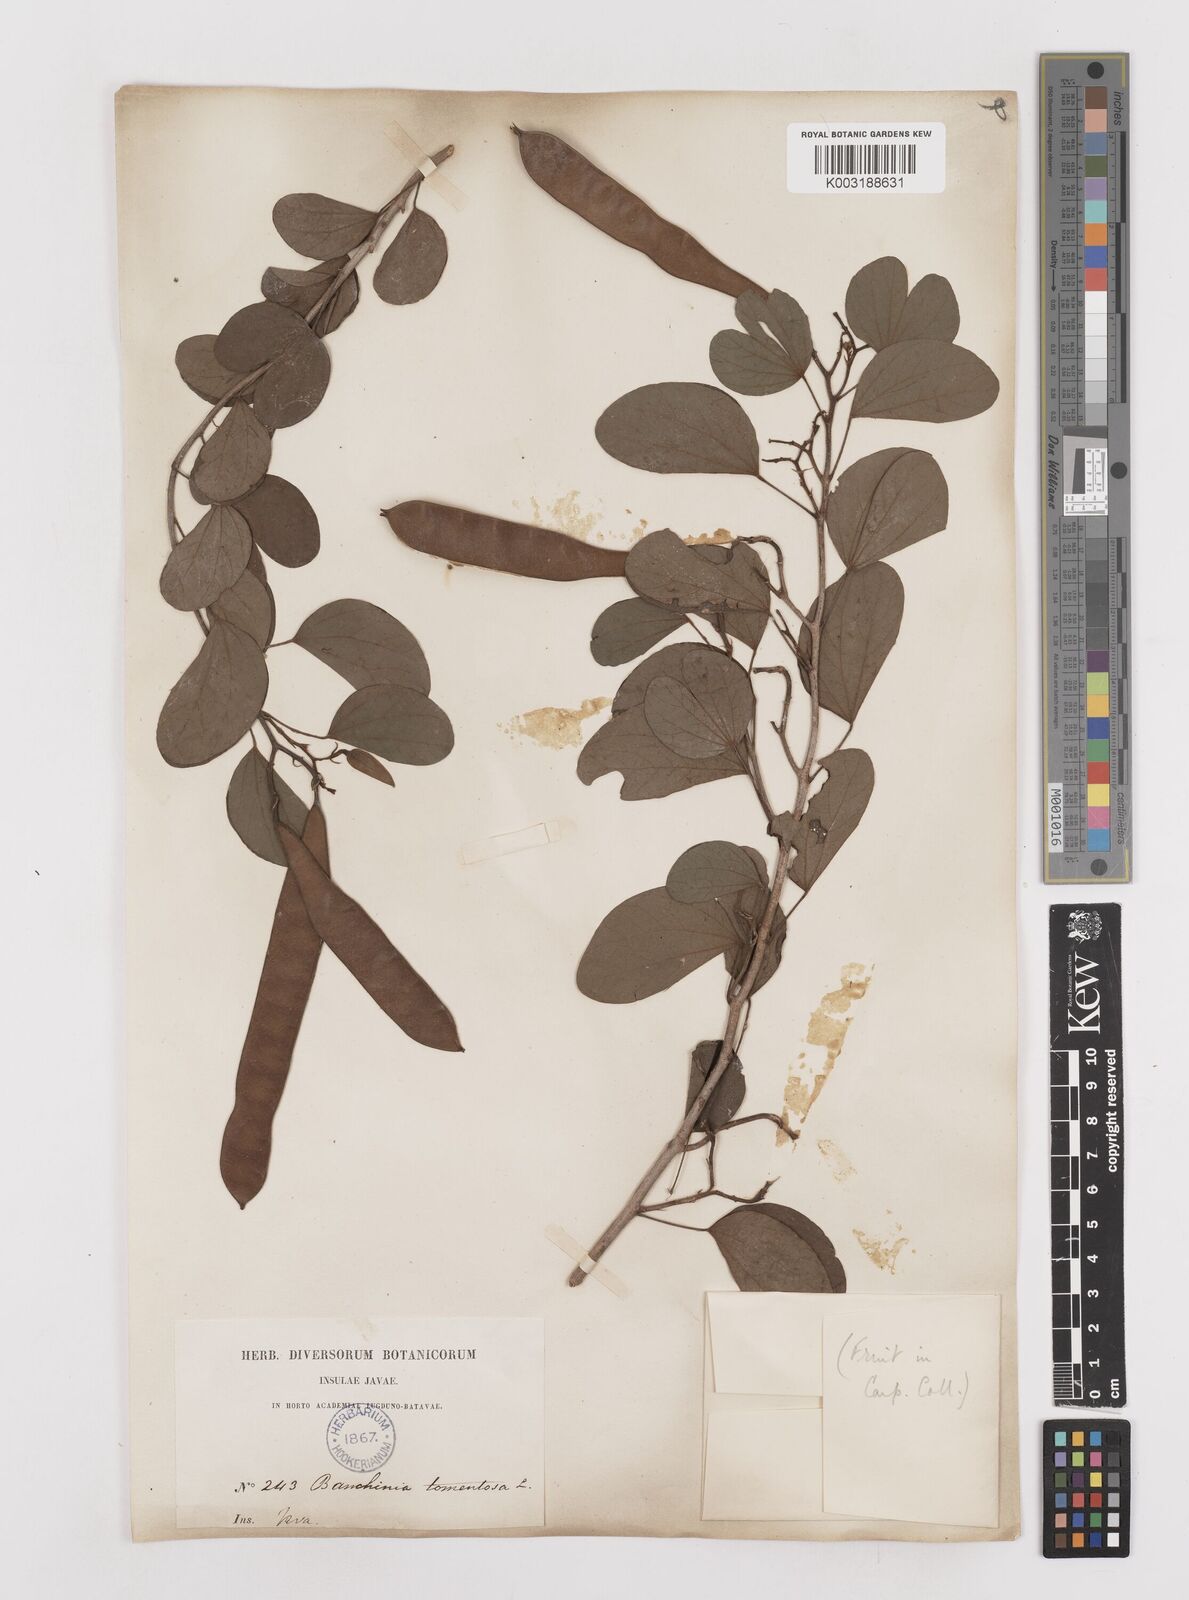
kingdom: Plantae
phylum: Tracheophyta
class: Magnoliopsida
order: Fabales
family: Fabaceae
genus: Bauhinia
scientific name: Bauhinia tomentosa
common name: Bell bauhinia
